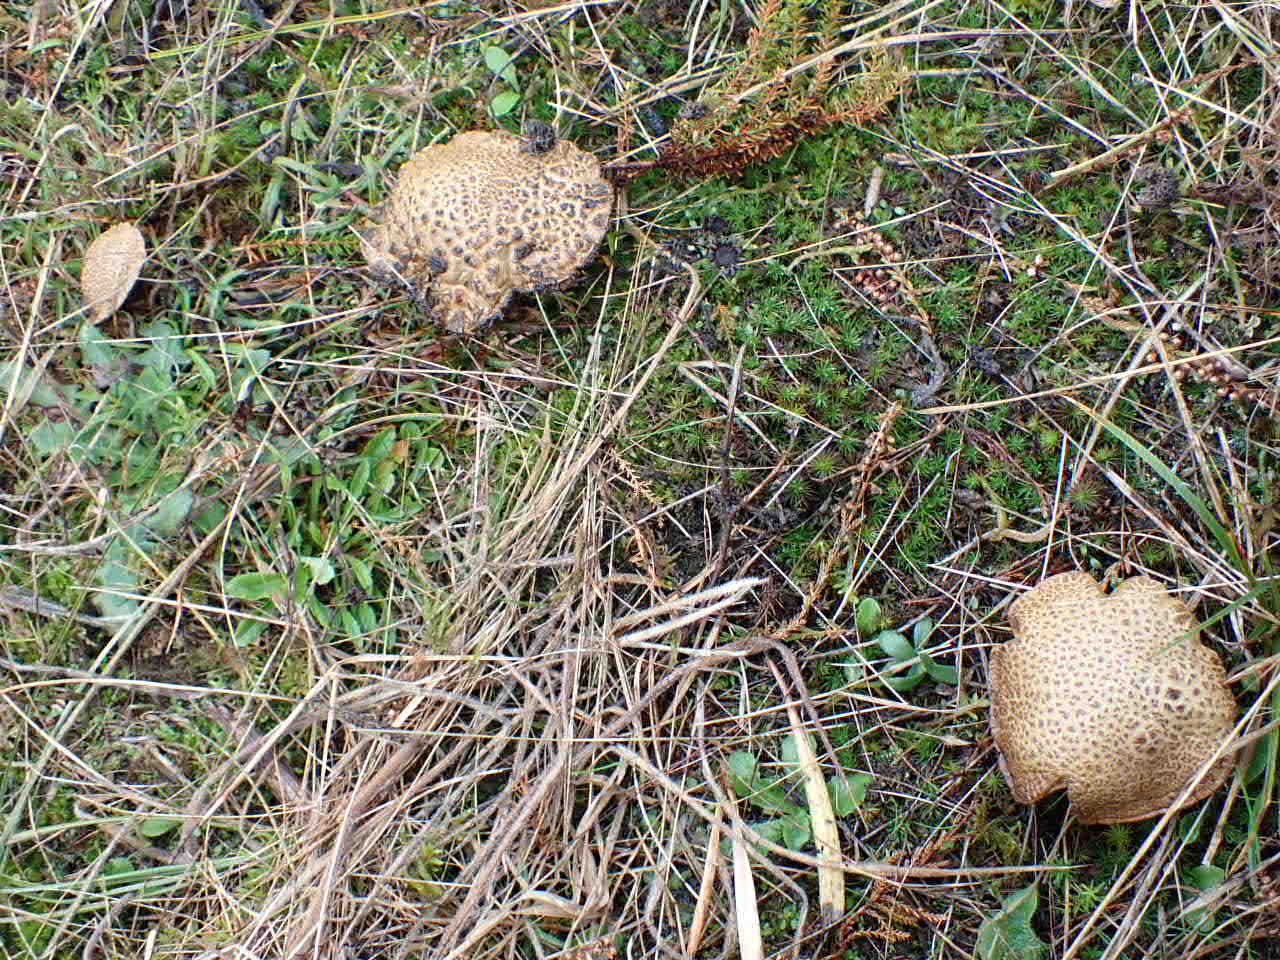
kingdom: Fungi
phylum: Basidiomycota
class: Agaricomycetes
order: Boletales
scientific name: Boletales
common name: rørhatordenen
